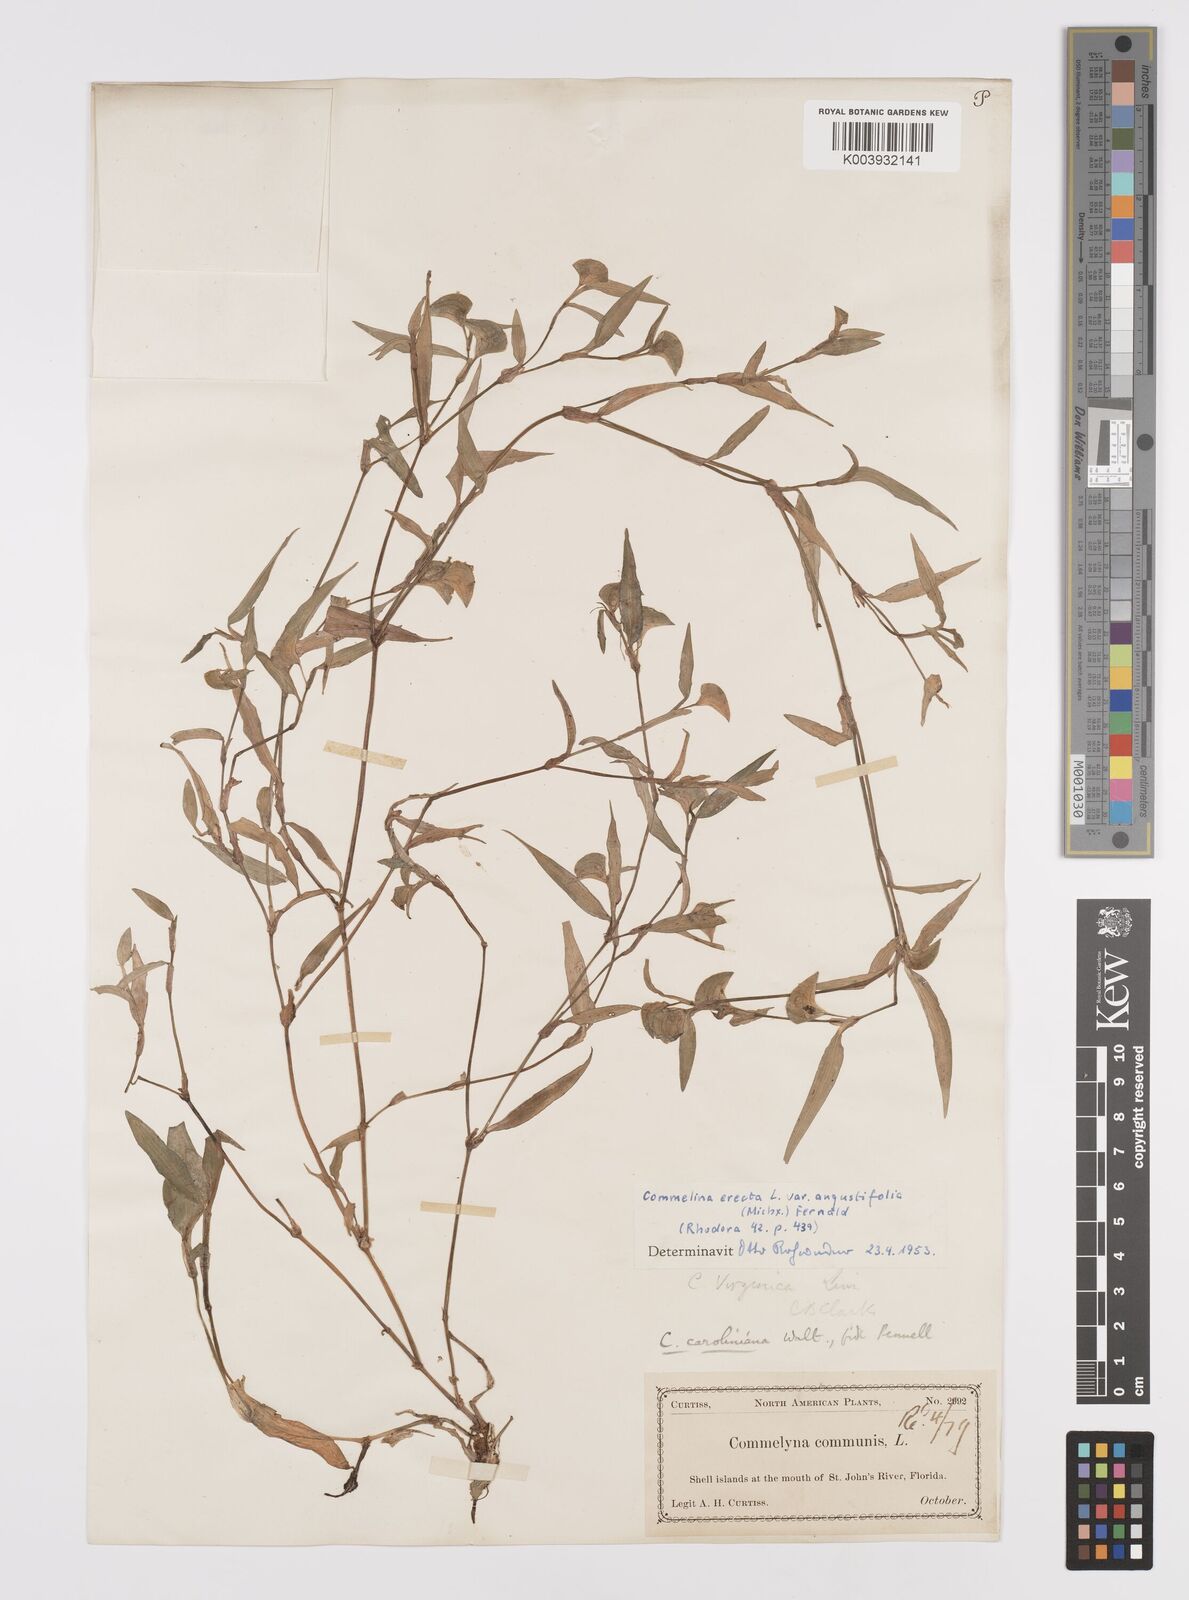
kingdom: Plantae
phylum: Tracheophyta
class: Liliopsida
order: Commelinales
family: Commelinaceae
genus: Commelina
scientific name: Commelina erecta
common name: Blousel blommetjie
